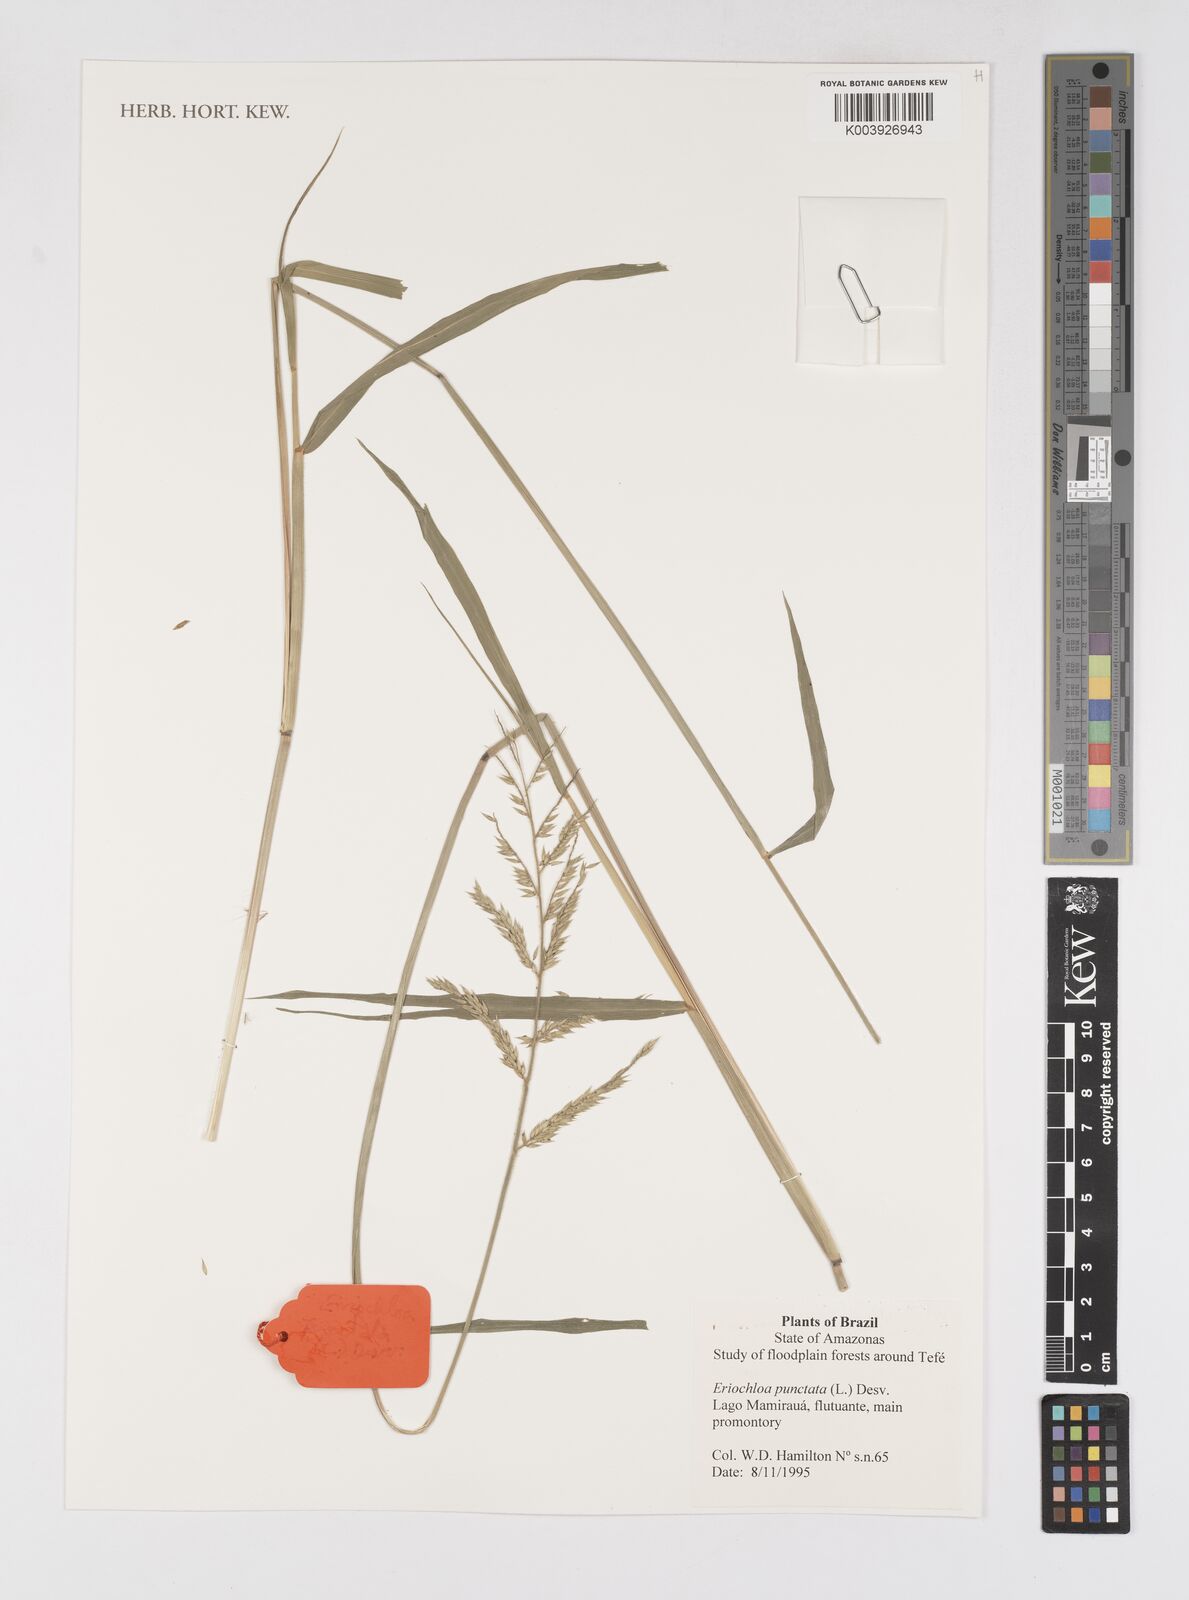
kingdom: Plantae
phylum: Tracheophyta
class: Liliopsida
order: Poales
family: Poaceae
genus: Eriochloa
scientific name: Eriochloa punctata
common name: Louisiana cupgrass
